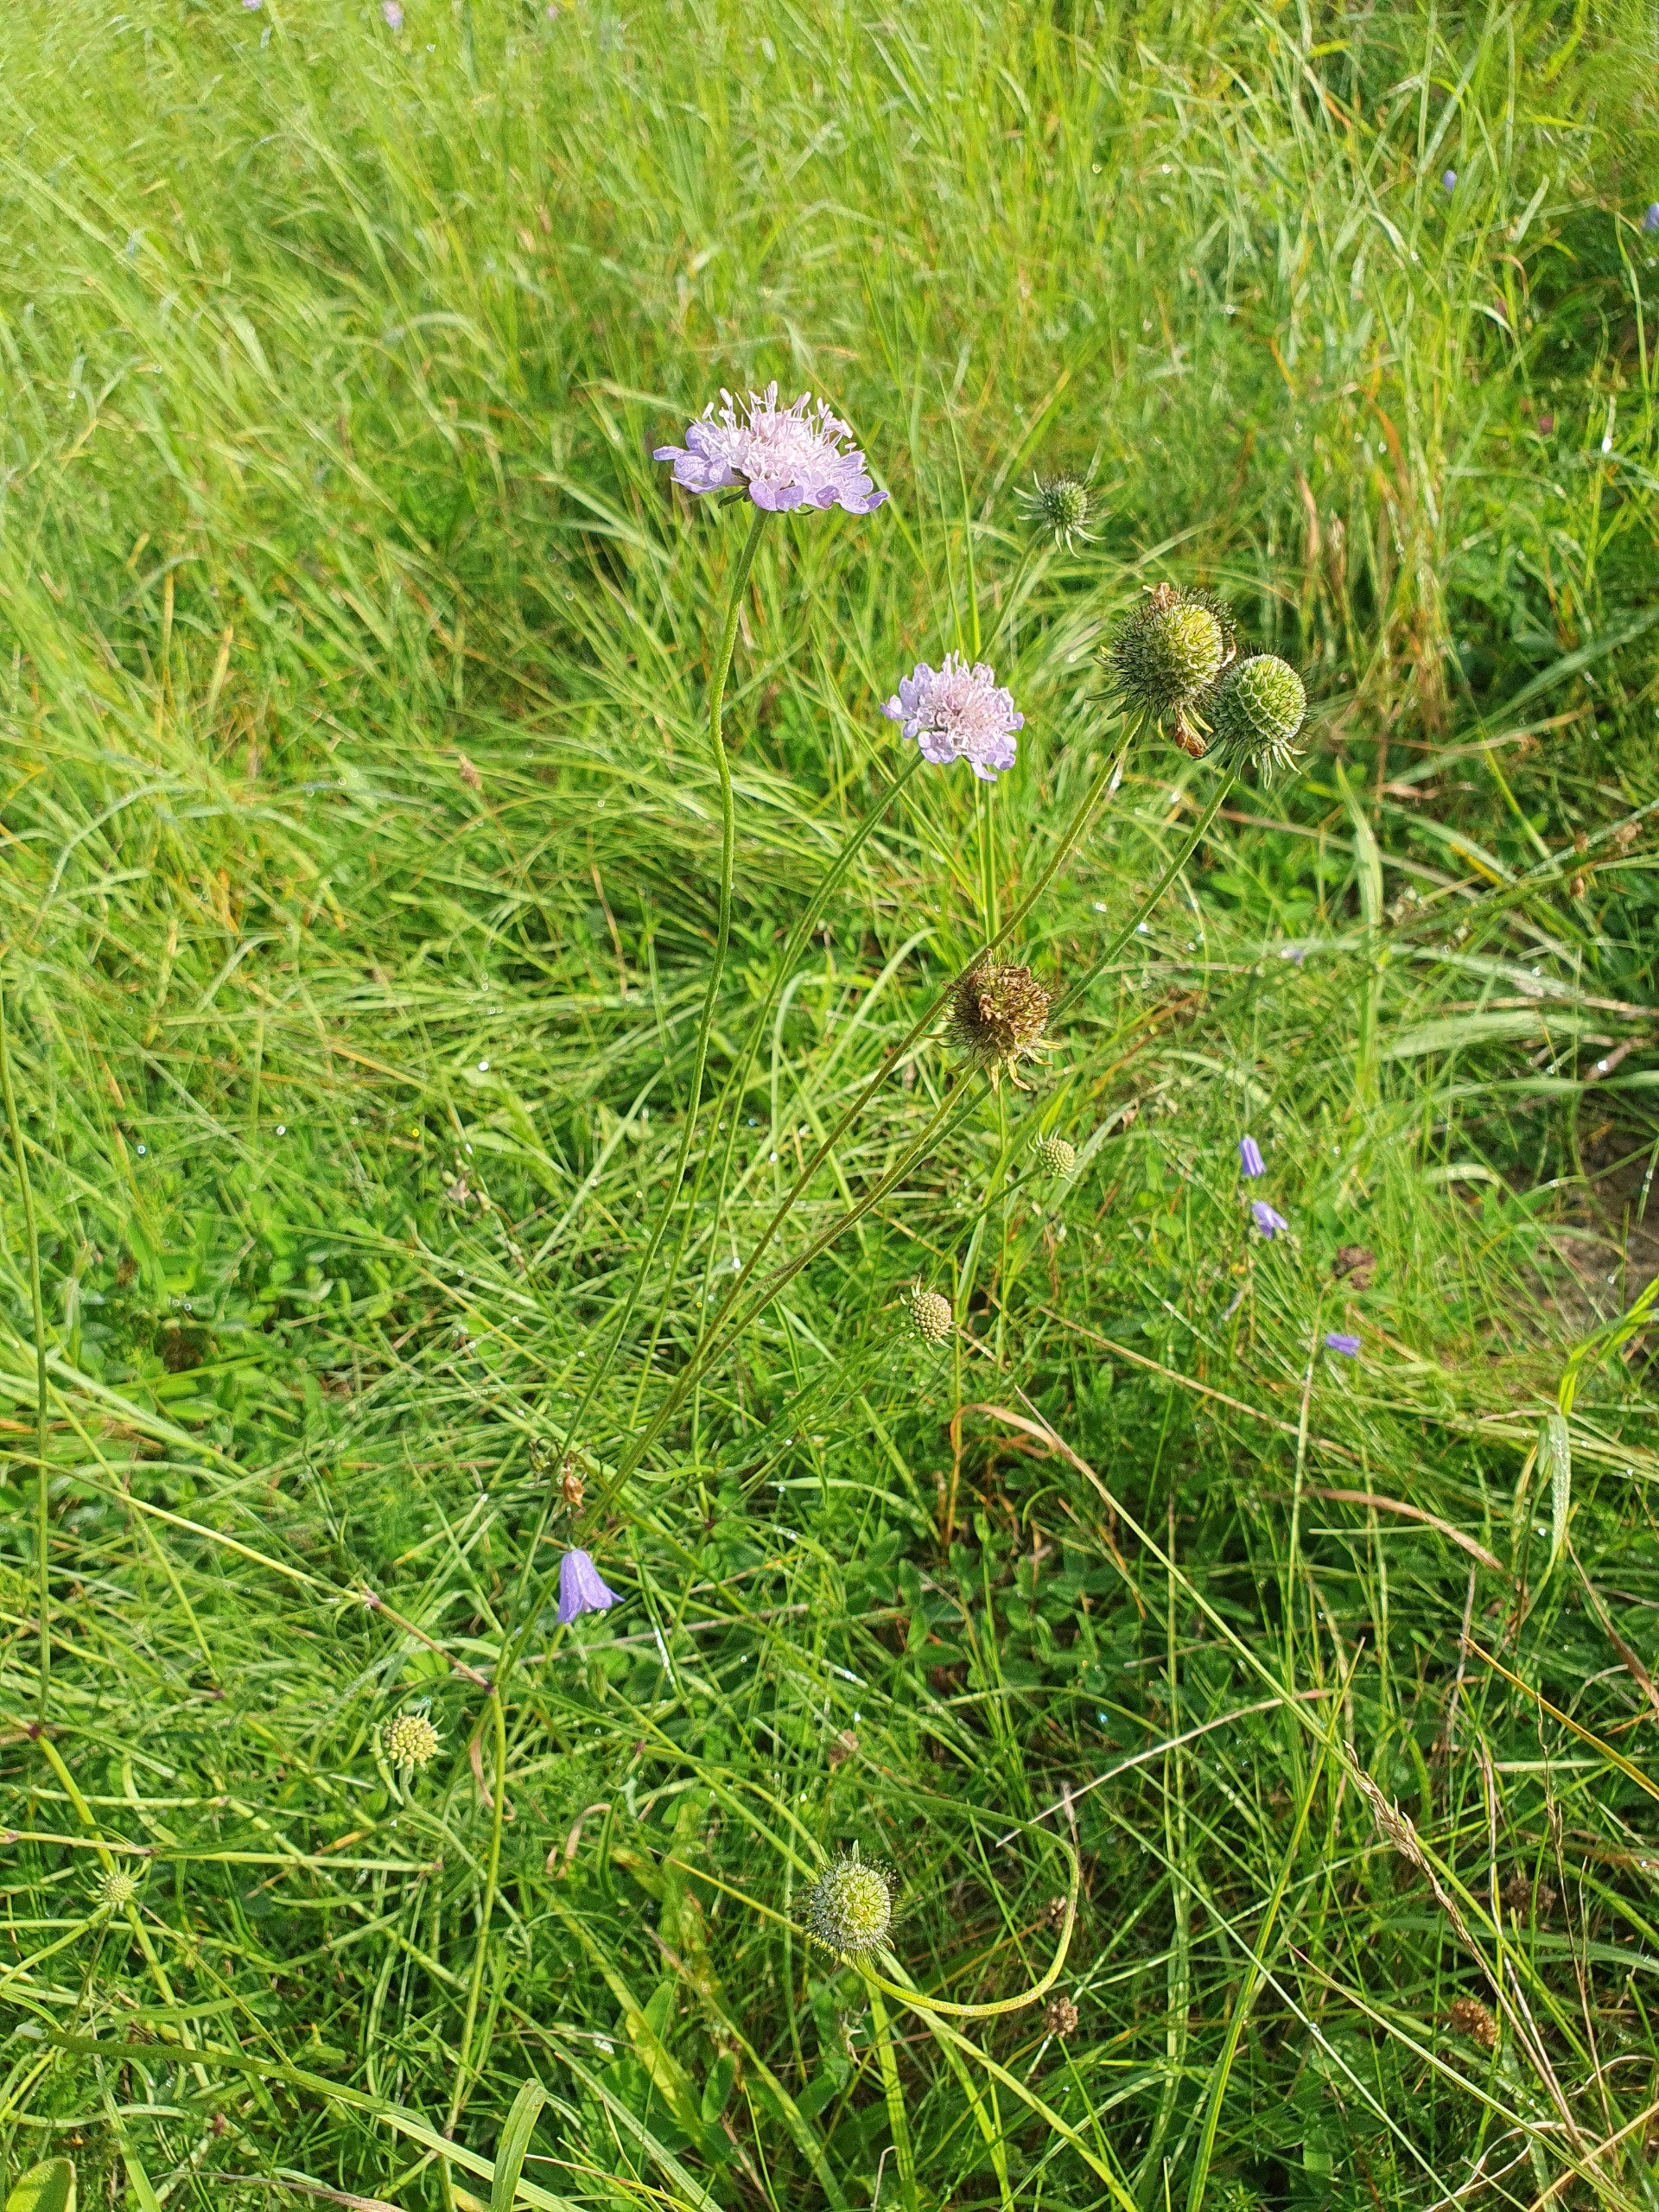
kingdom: Plantae
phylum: Tracheophyta
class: Magnoliopsida
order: Dipsacales
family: Caprifoliaceae
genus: Scabiosa
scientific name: Scabiosa columbaria
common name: Due-skabiose
